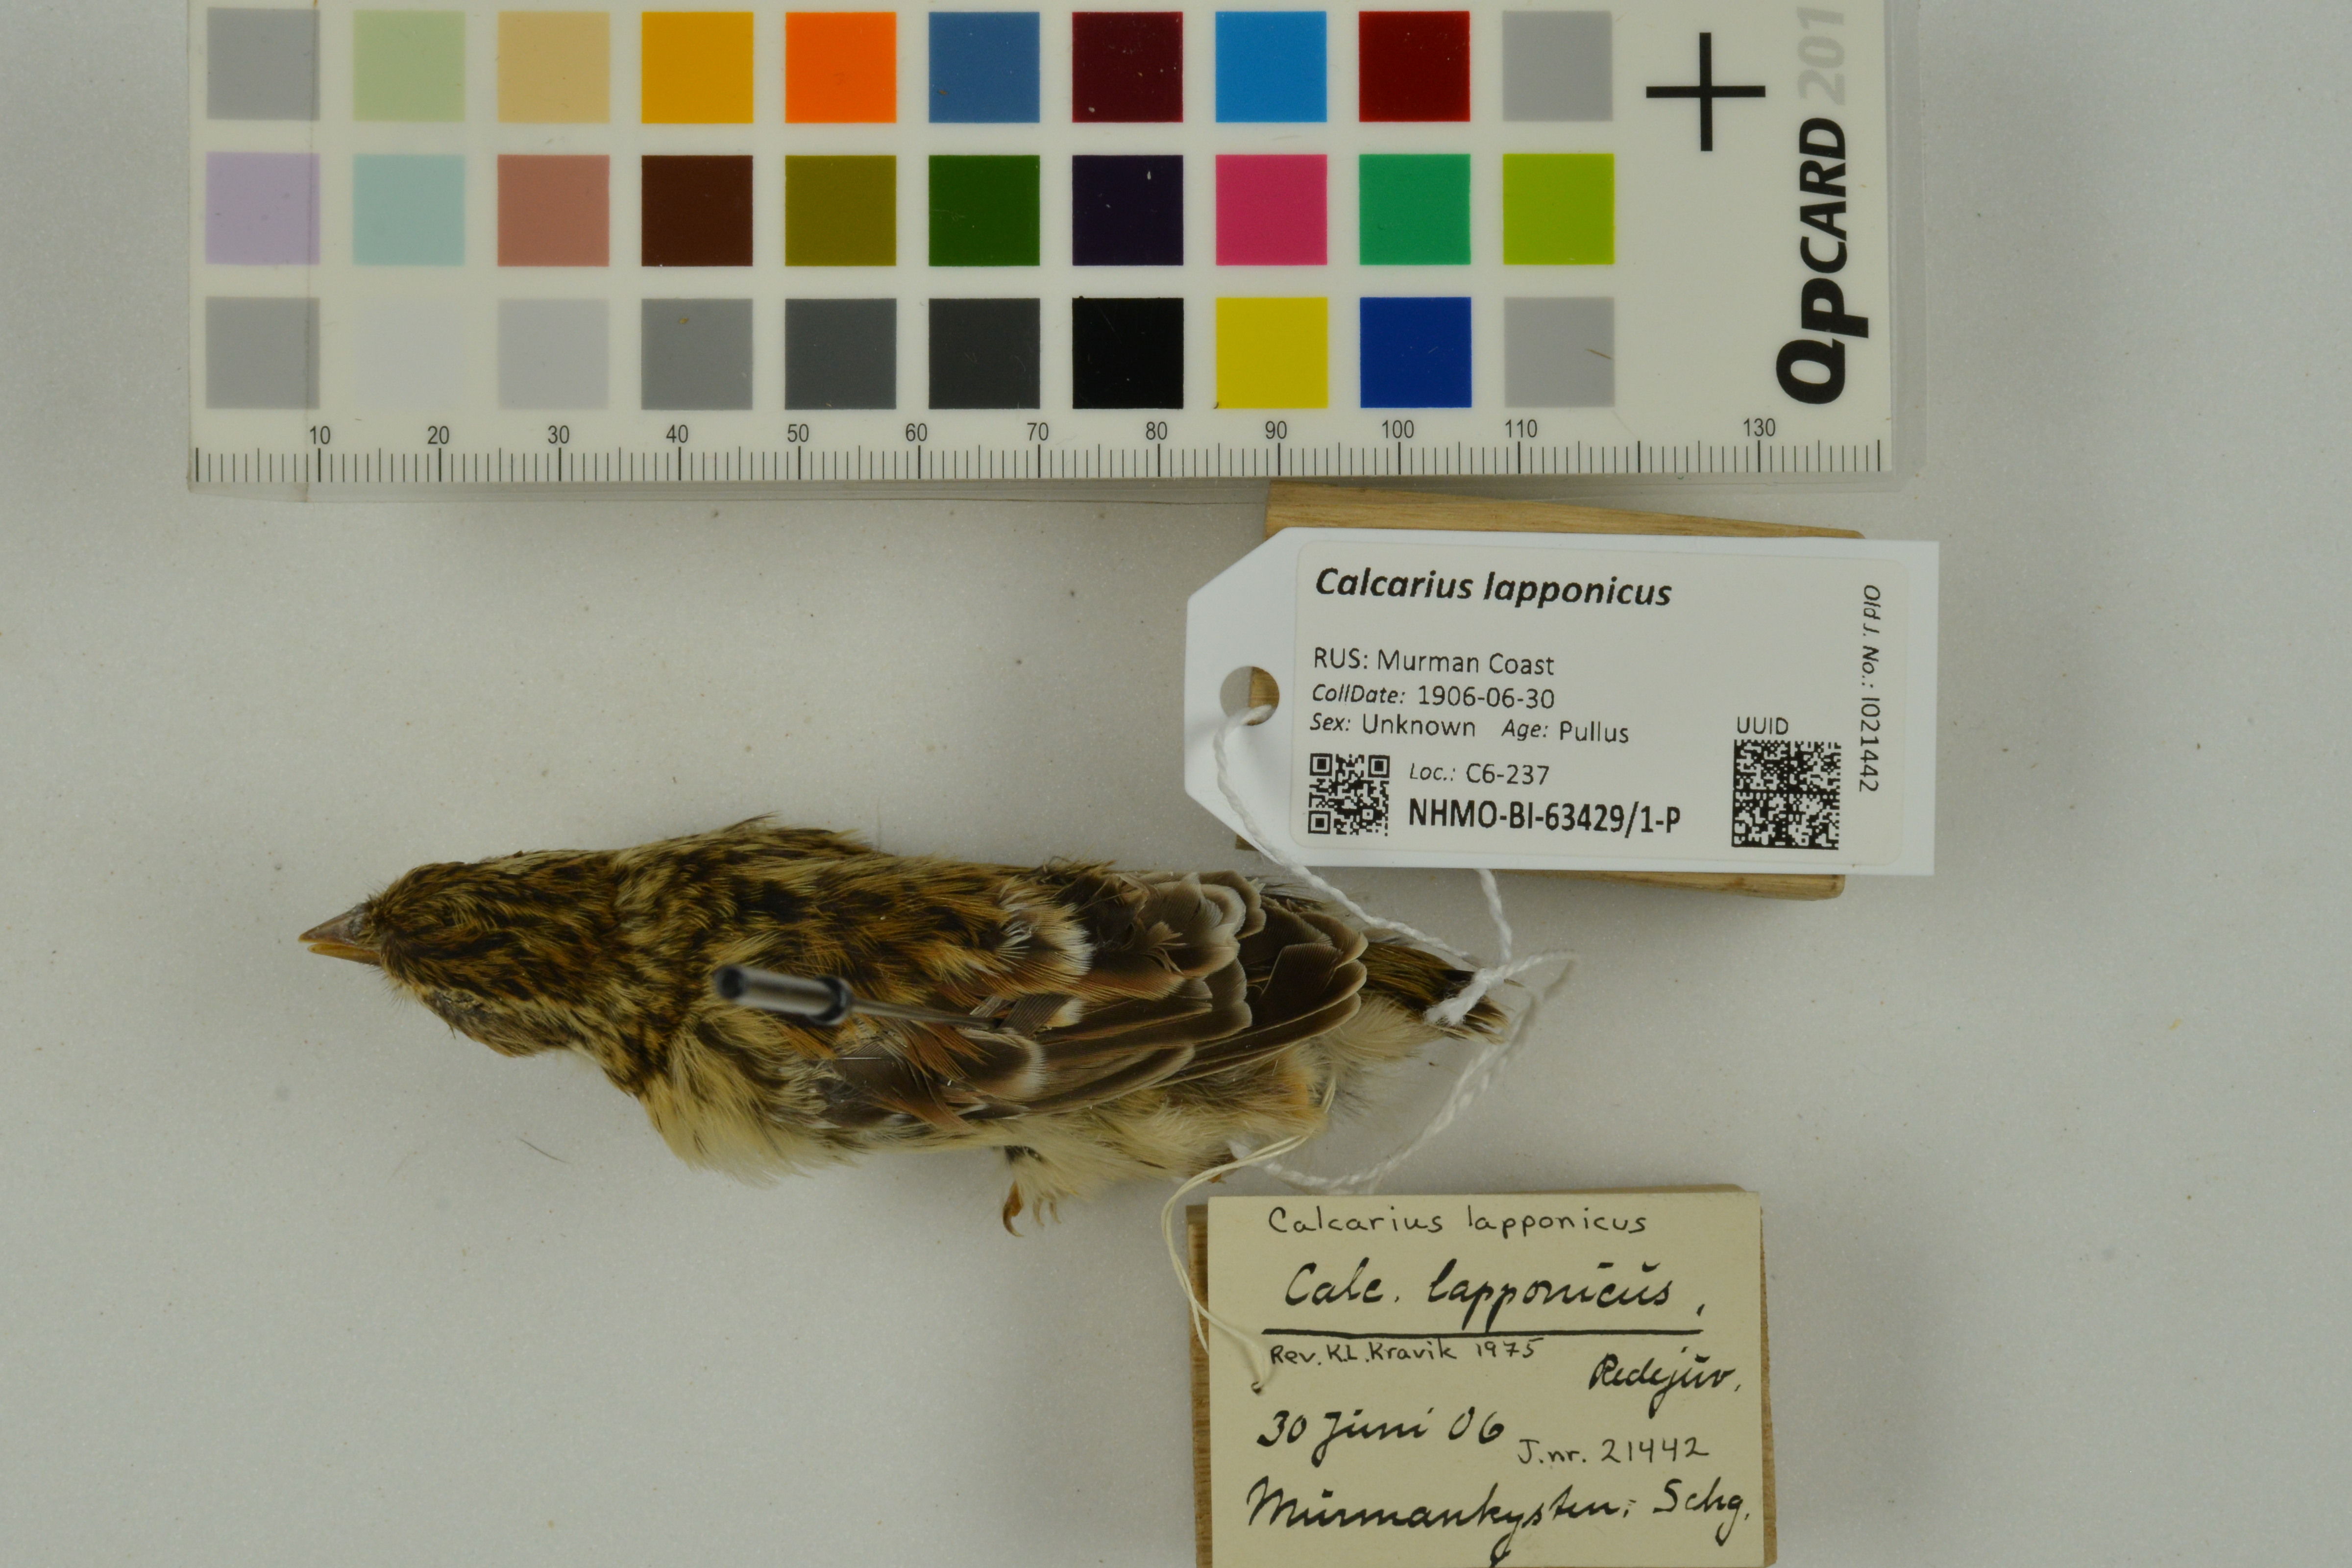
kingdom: Animalia
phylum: Chordata
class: Aves
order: Passeriformes
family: Calcariidae
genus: Calcarius
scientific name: Calcarius lapponicus
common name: Lapland longspur
